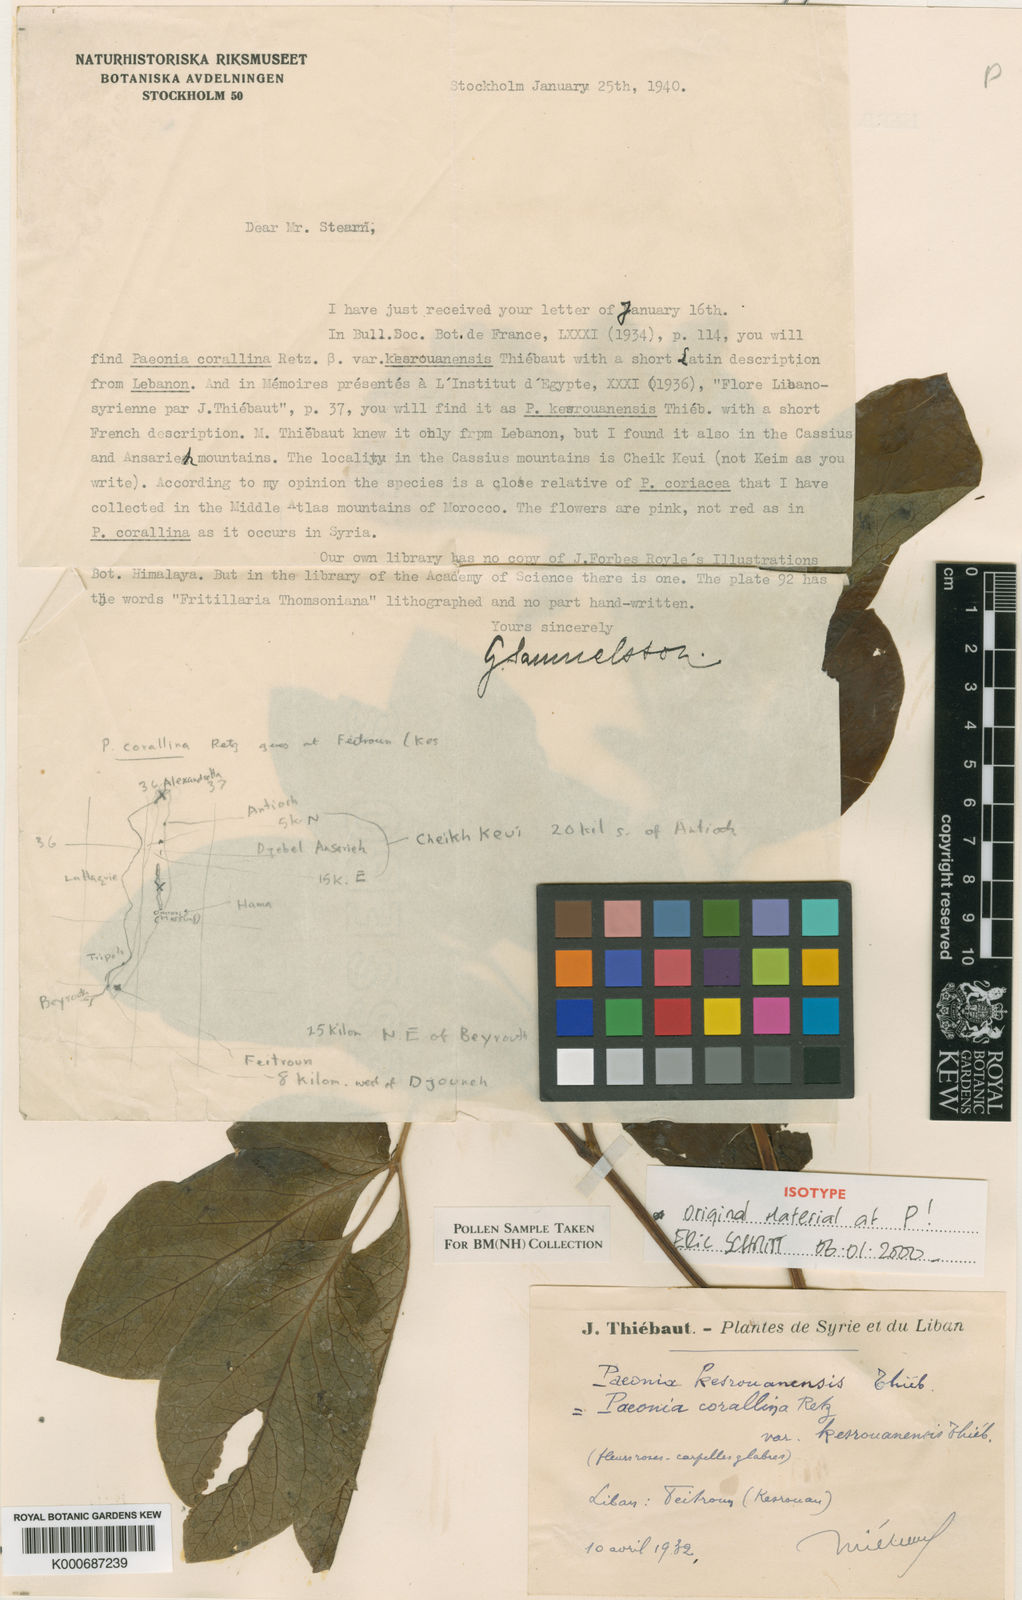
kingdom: Plantae
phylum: Tracheophyta
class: Magnoliopsida
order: Saxifragales
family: Paeoniaceae
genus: Paeonia
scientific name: Paeonia mascula
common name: Peony
